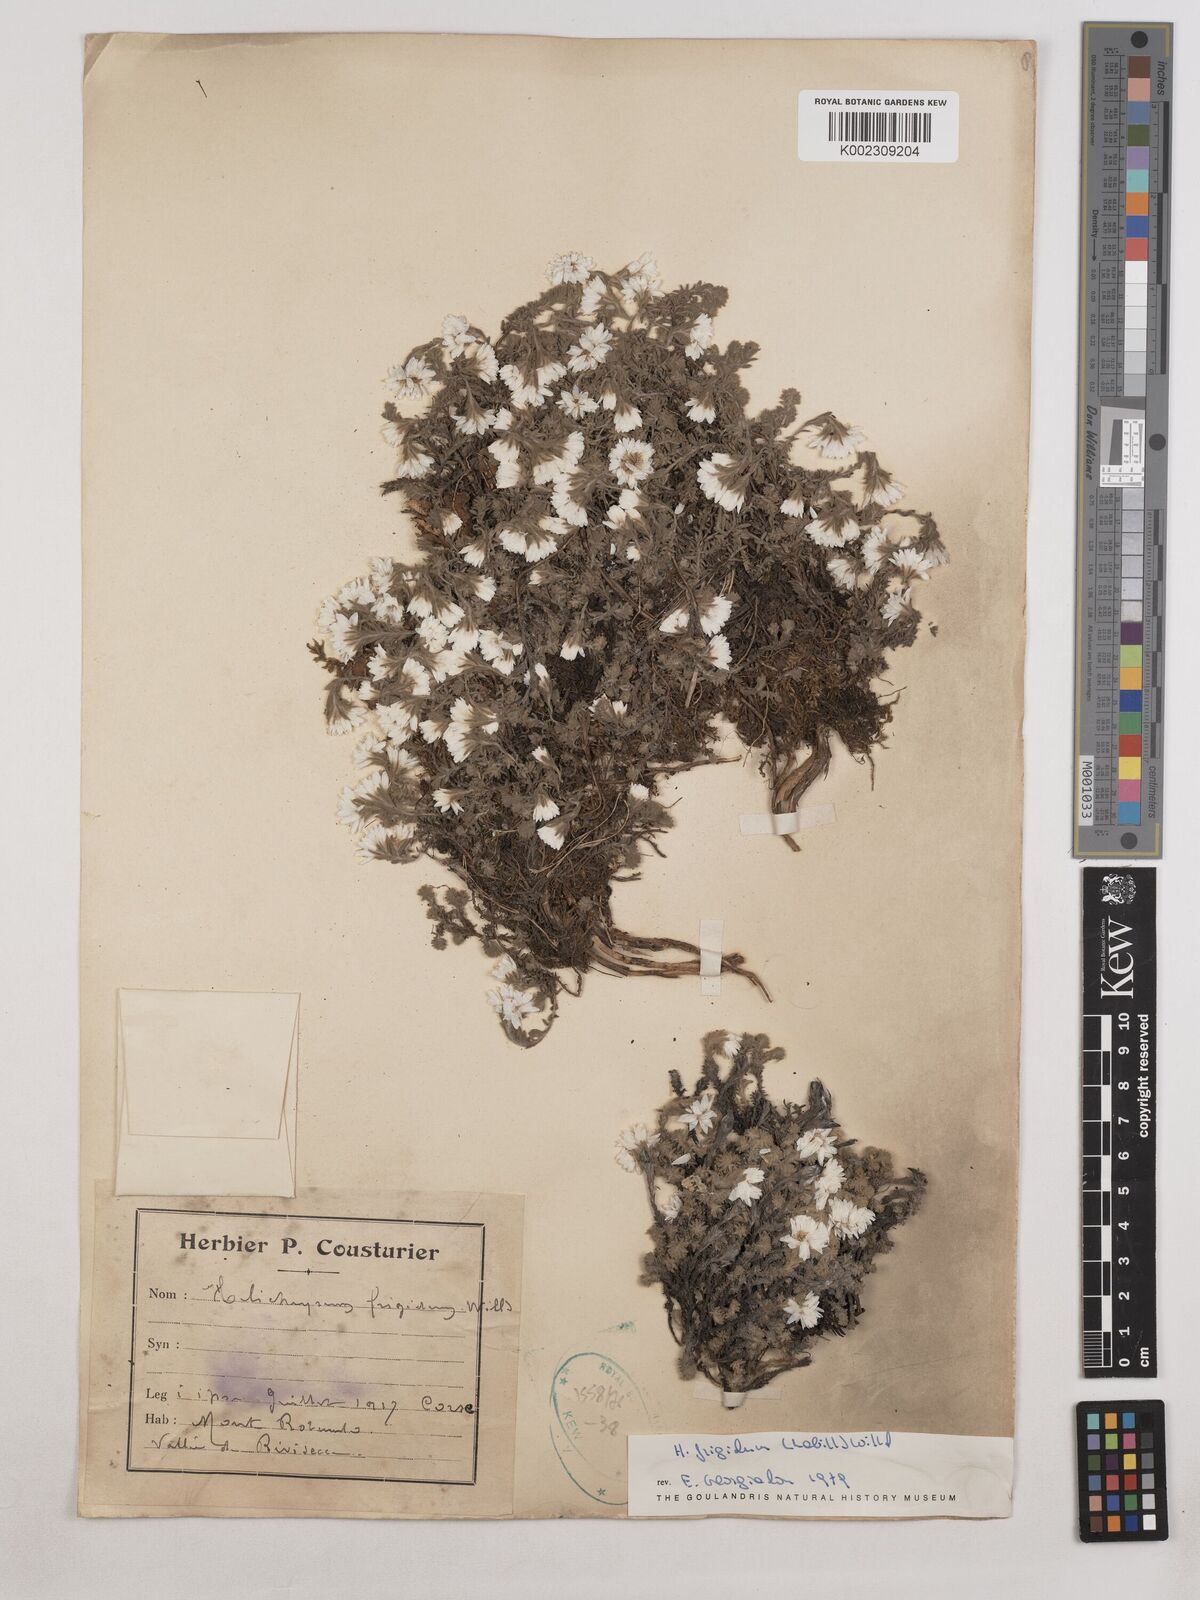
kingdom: Plantae
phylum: Tracheophyta
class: Magnoliopsida
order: Asterales
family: Asteraceae
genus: Castroviejoa
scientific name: Castroviejoa frigida
